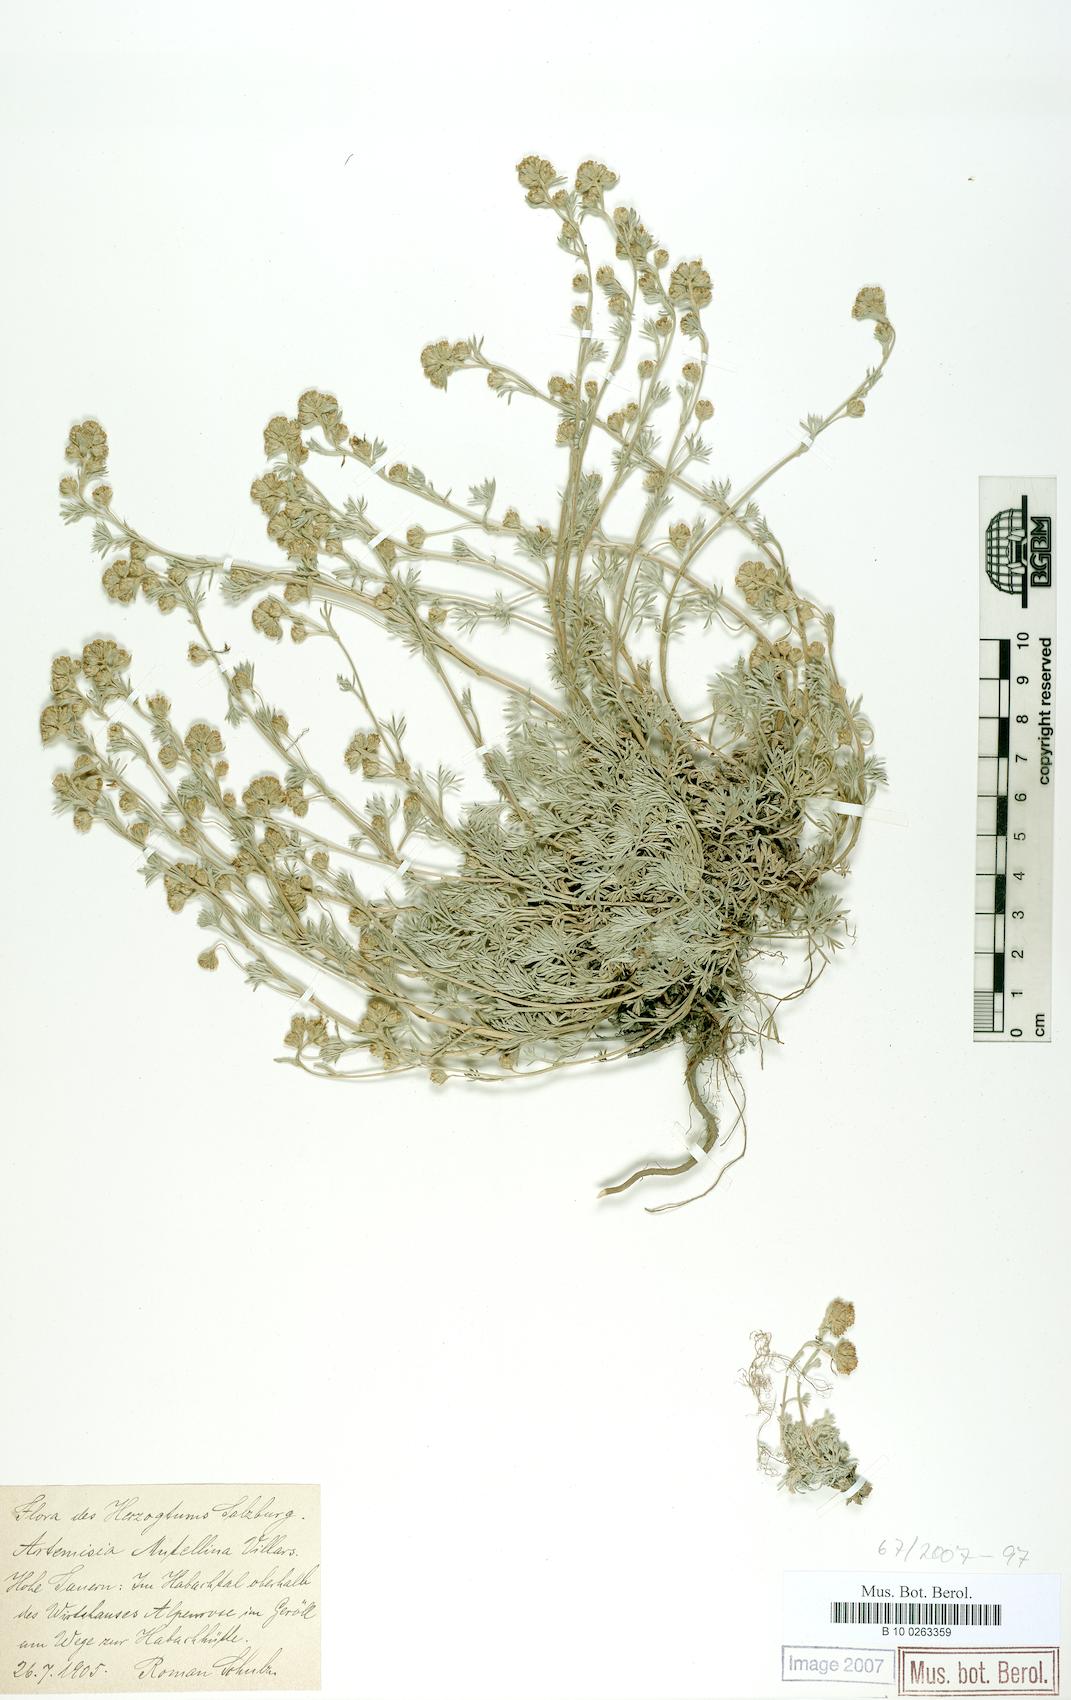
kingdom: Plantae
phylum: Tracheophyta
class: Magnoliopsida
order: Asterales
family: Asteraceae
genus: Artemisia
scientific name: Artemisia mutellina
